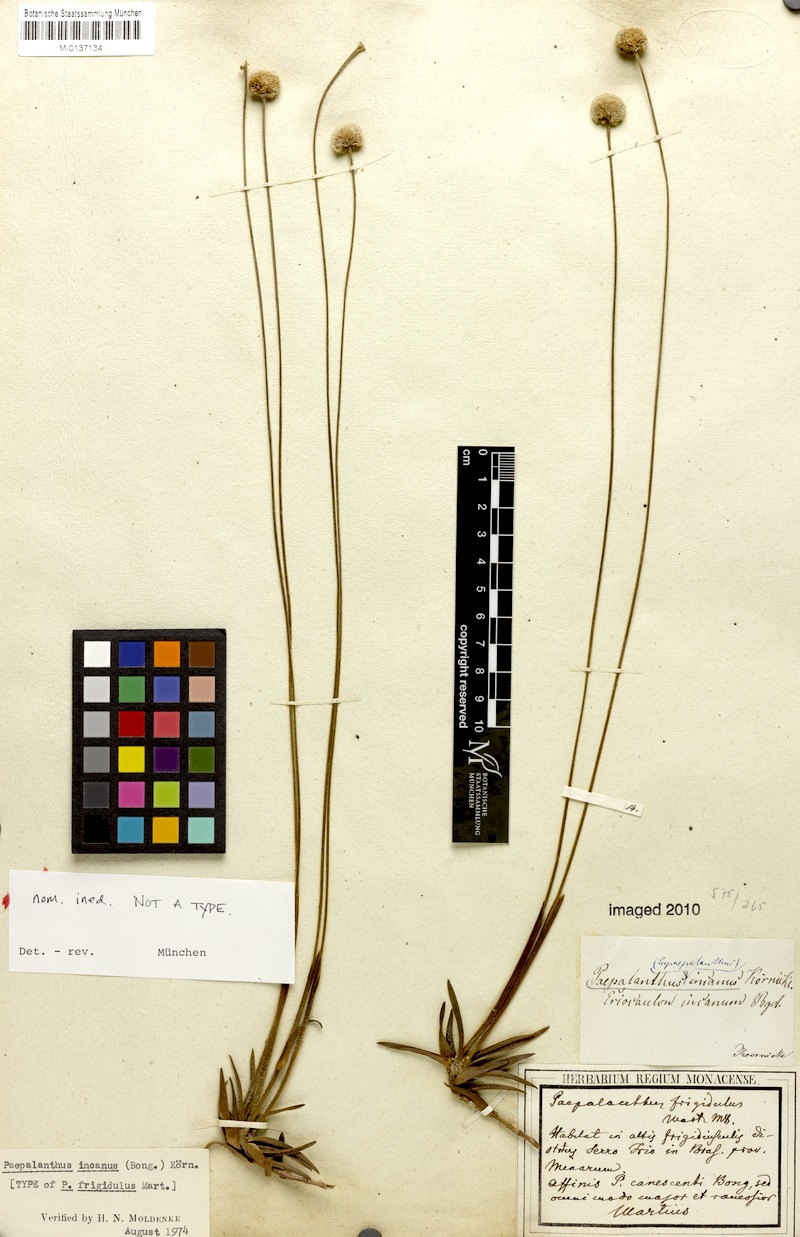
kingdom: Plantae
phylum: Tracheophyta
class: Liliopsida
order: Poales
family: Eriocaulaceae
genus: Paepalanthus
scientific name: Paepalanthus incanus
